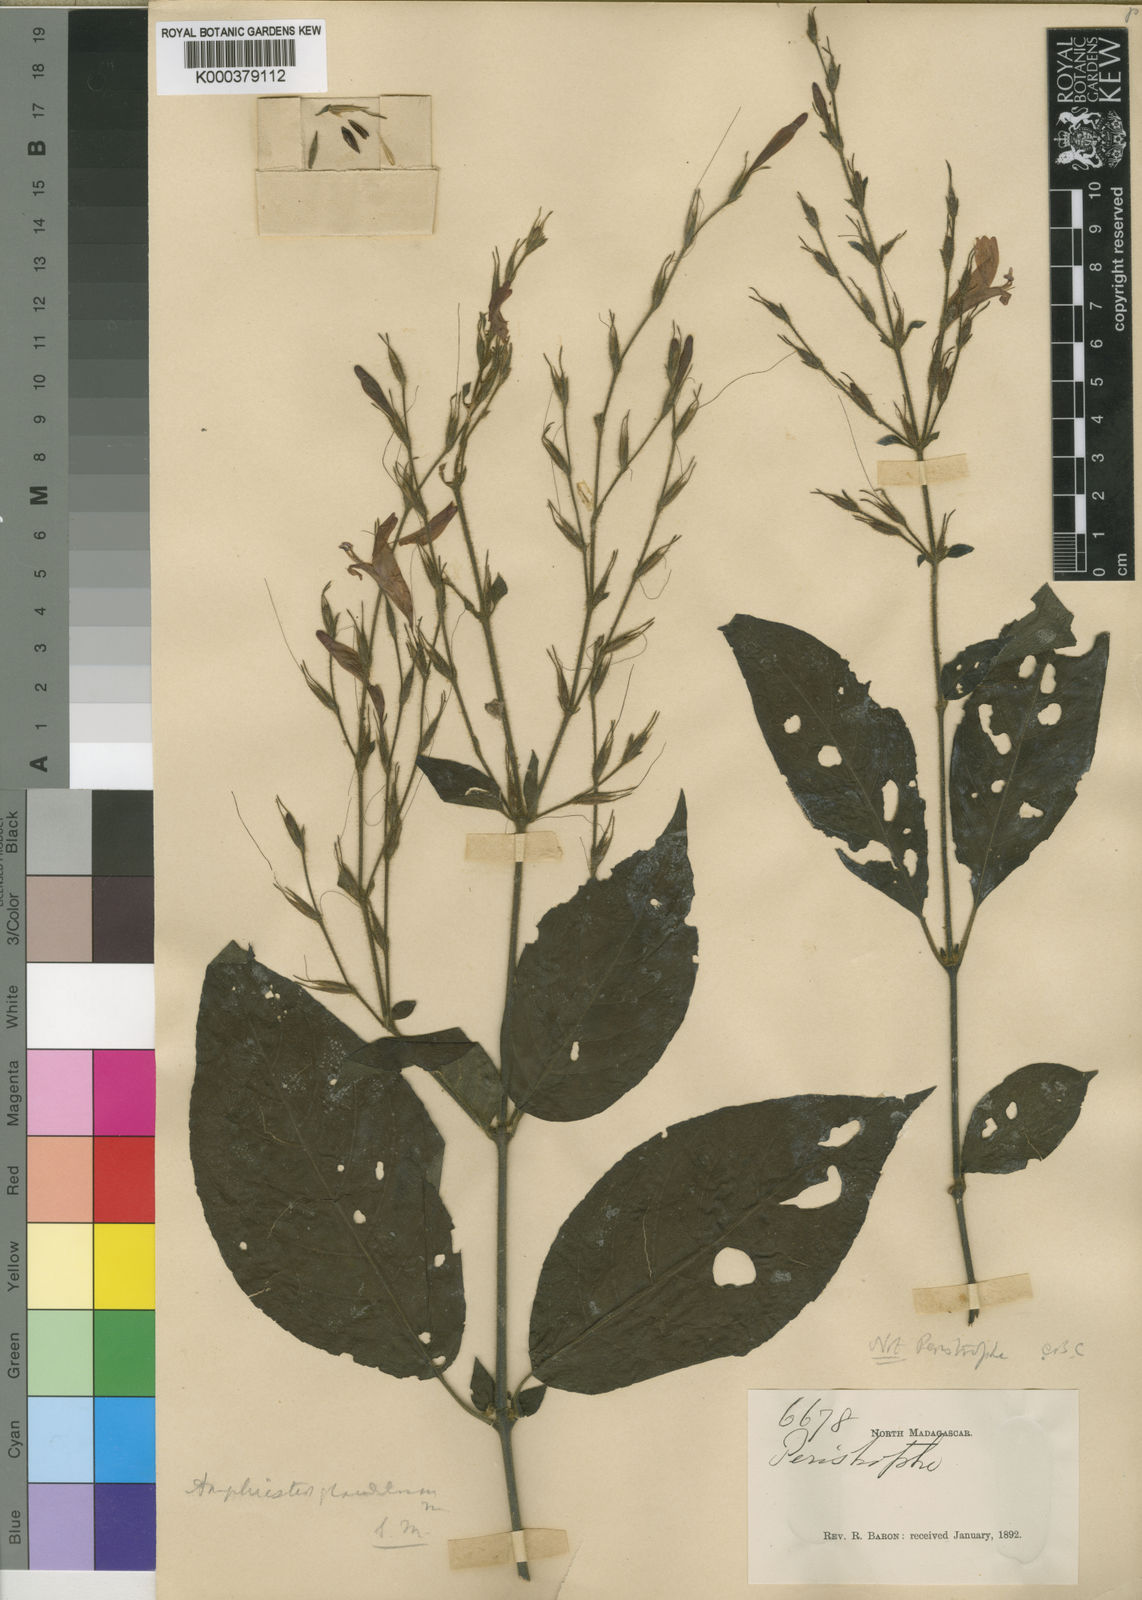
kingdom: Plantae
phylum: Tracheophyta
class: Magnoliopsida
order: Lamiales
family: Acanthaceae
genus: Hypoestes
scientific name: Hypoestes
